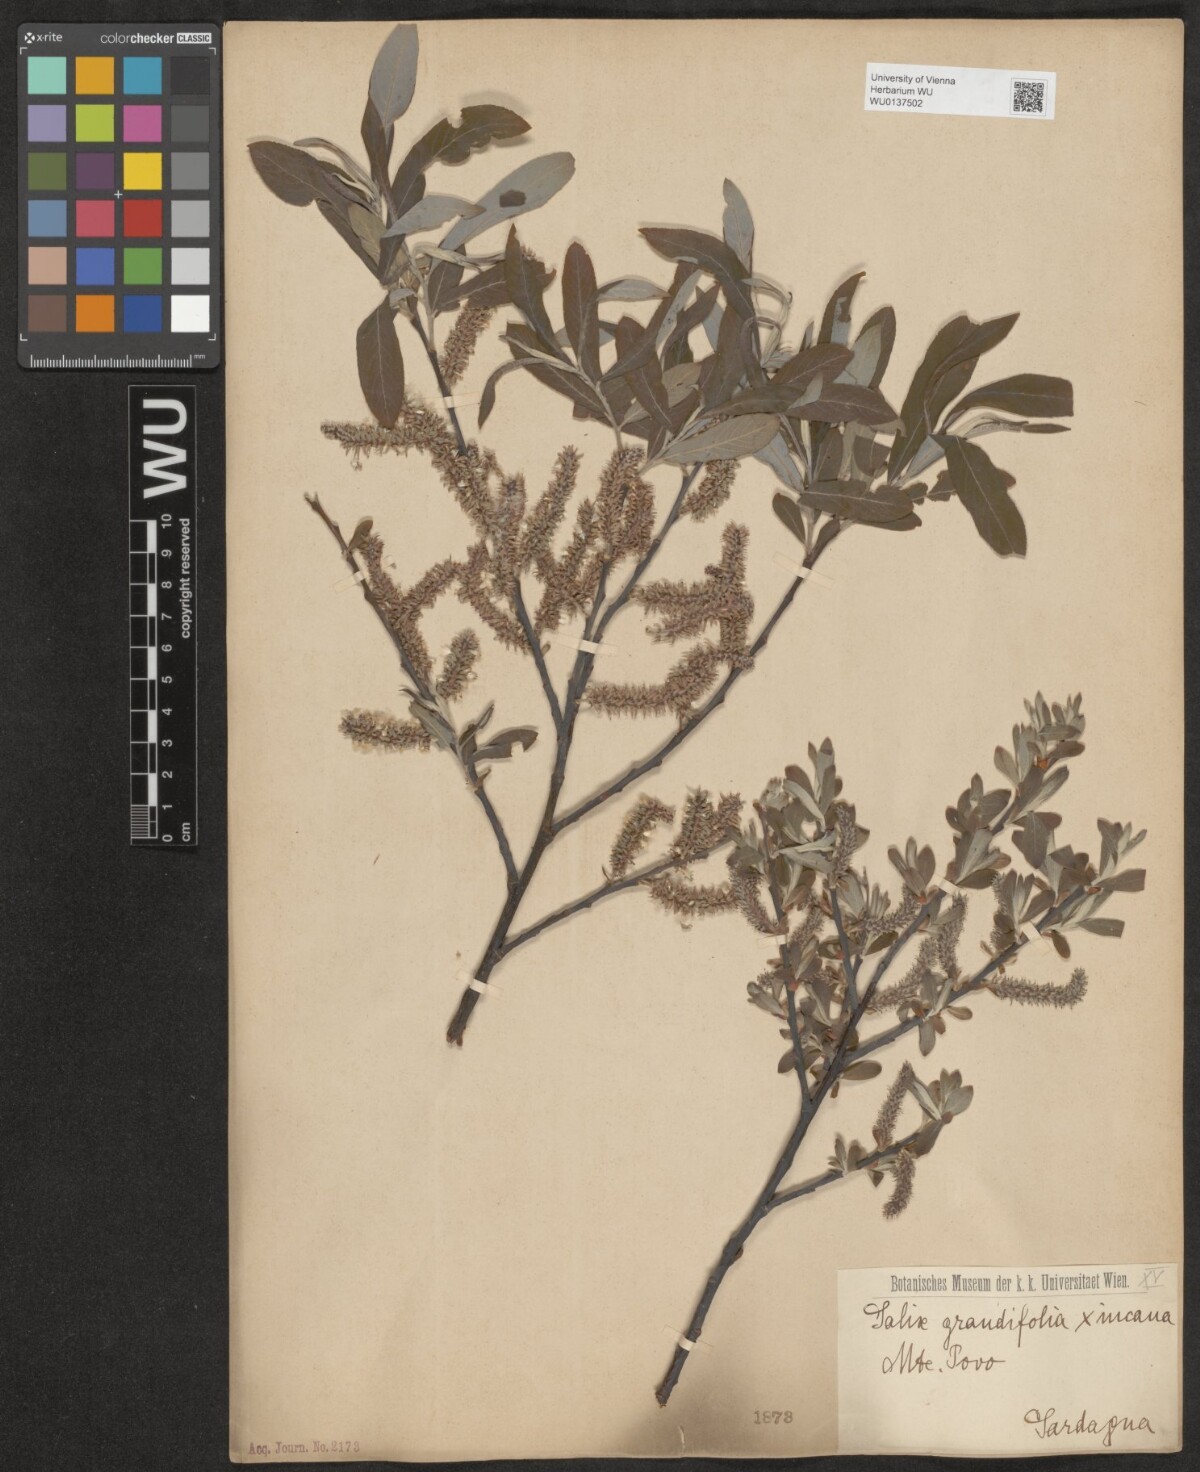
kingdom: Plantae
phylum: Tracheophyta
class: Magnoliopsida
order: Malpighiales
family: Salicaceae
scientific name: Salicaceae
